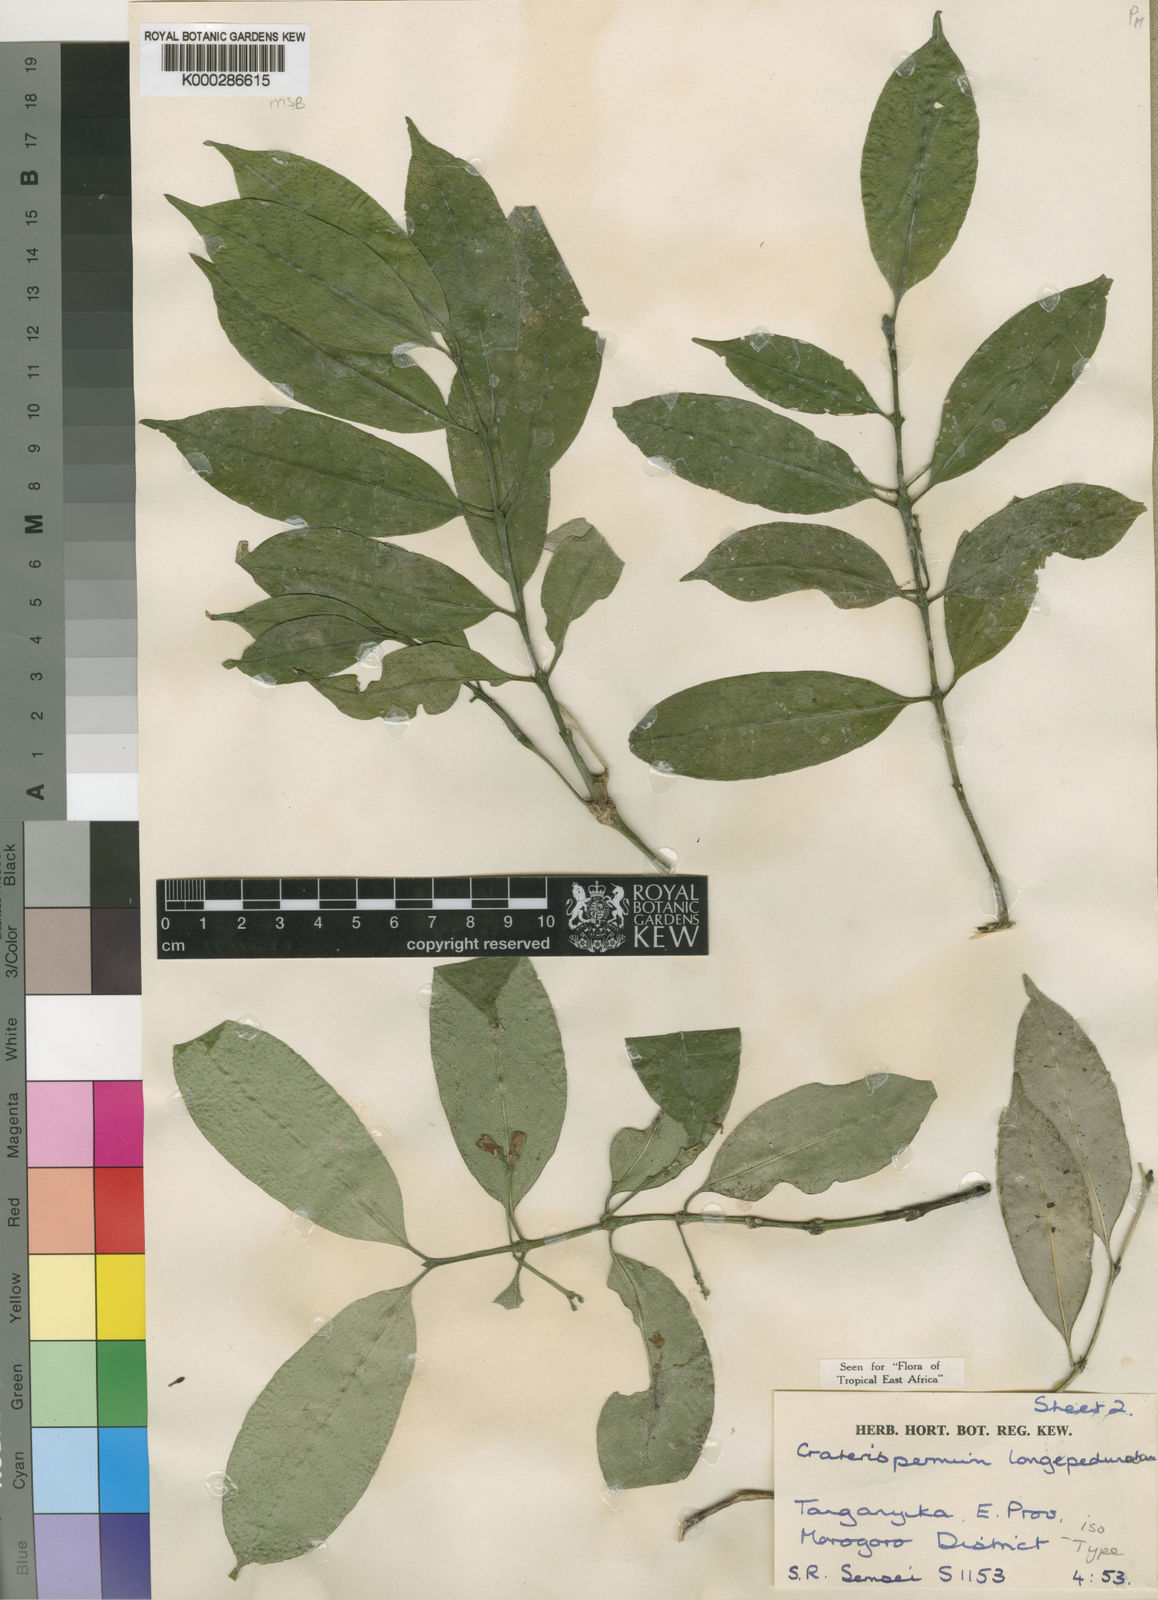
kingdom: Plantae
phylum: Tracheophyta
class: Magnoliopsida
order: Gentianales
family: Rubiaceae
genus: Craterispermum
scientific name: Craterispermum longipedunculatum
